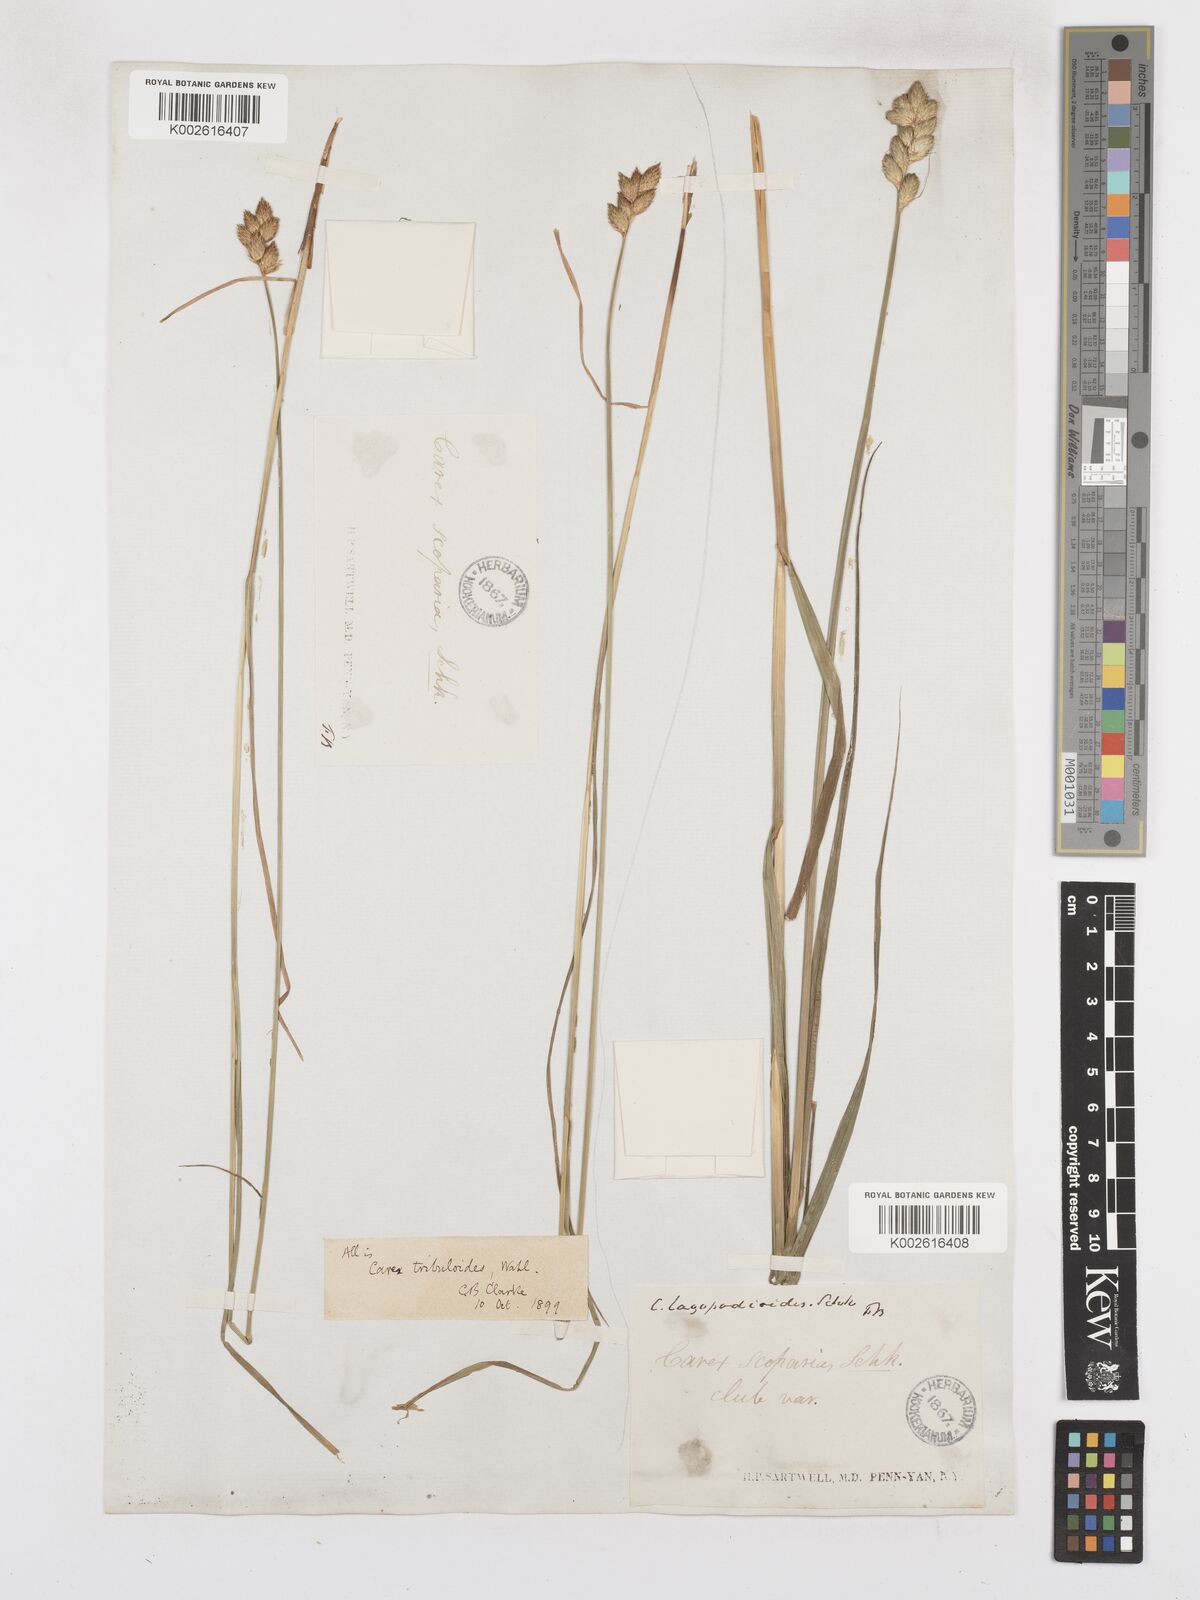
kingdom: Plantae
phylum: Tracheophyta
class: Liliopsida
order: Poales
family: Cyperaceae
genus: Carex
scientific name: Carex tribuloides
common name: Blunt broom sedge
